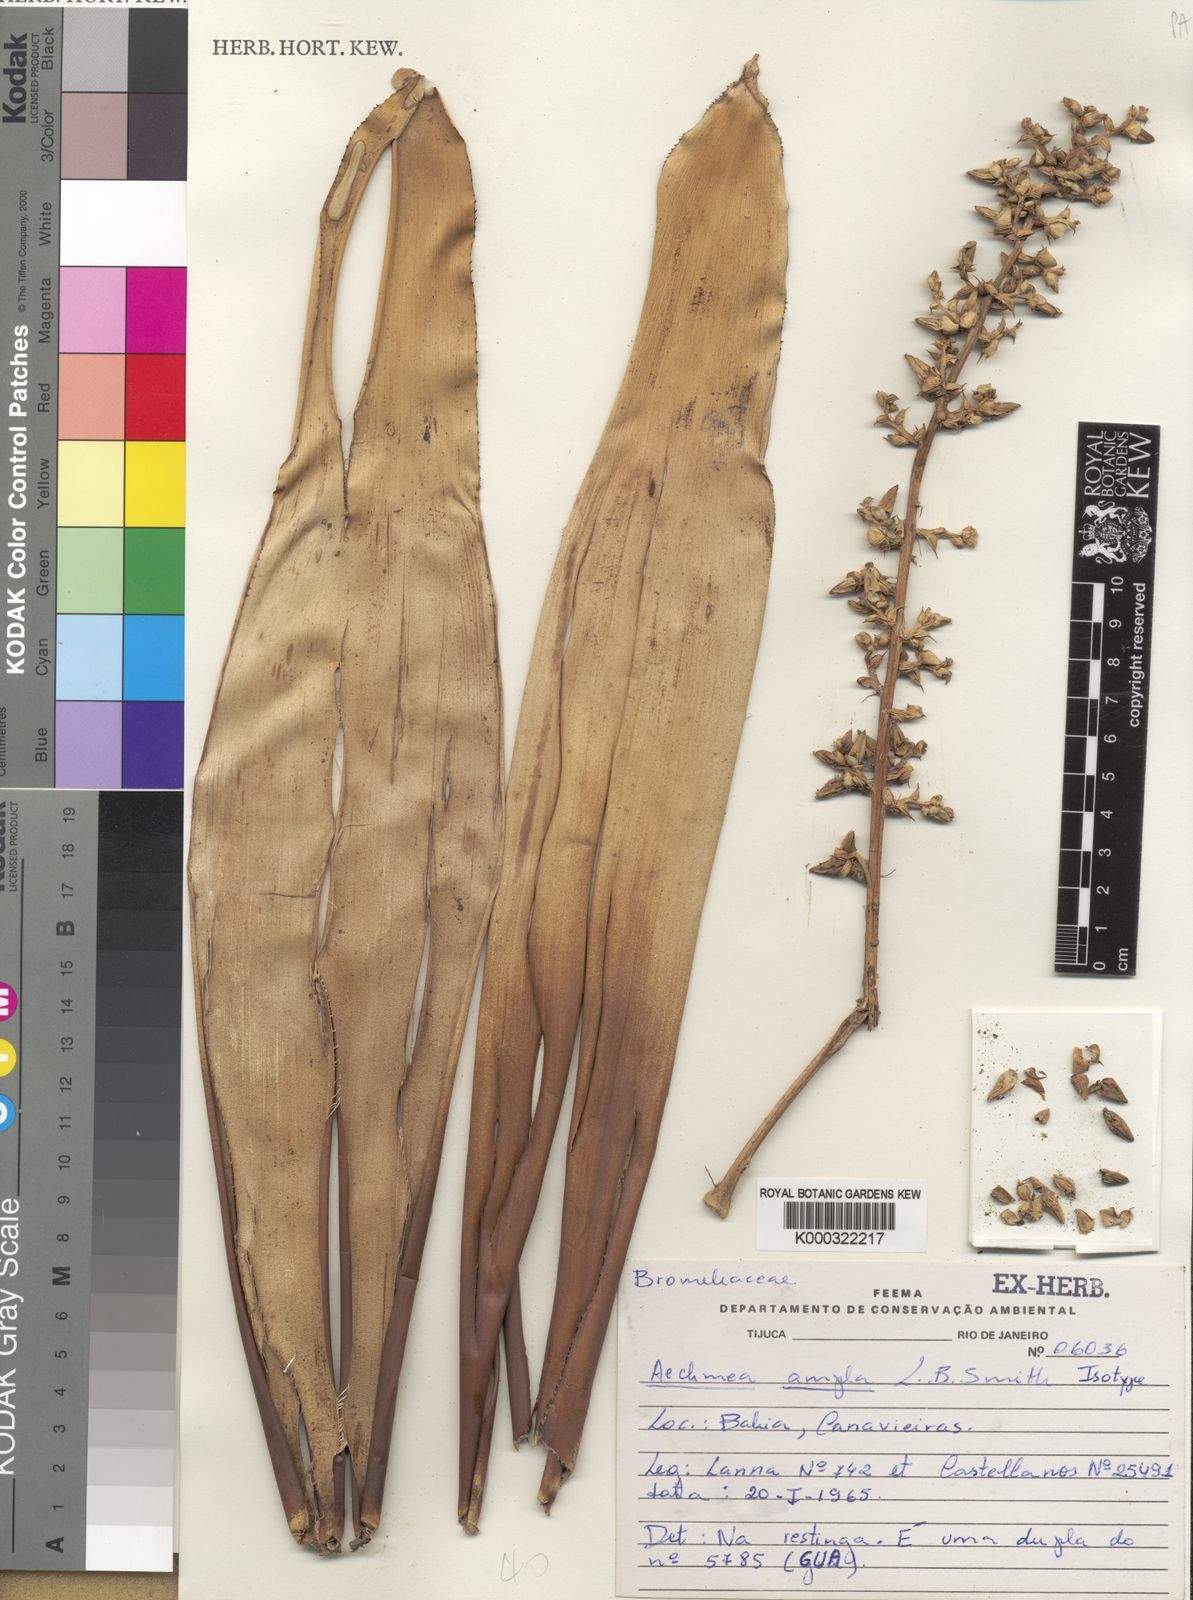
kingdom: Plantae
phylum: Tracheophyta
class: Liliopsida
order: Poales
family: Bromeliaceae
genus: Aechmea
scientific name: Aechmea ampla
